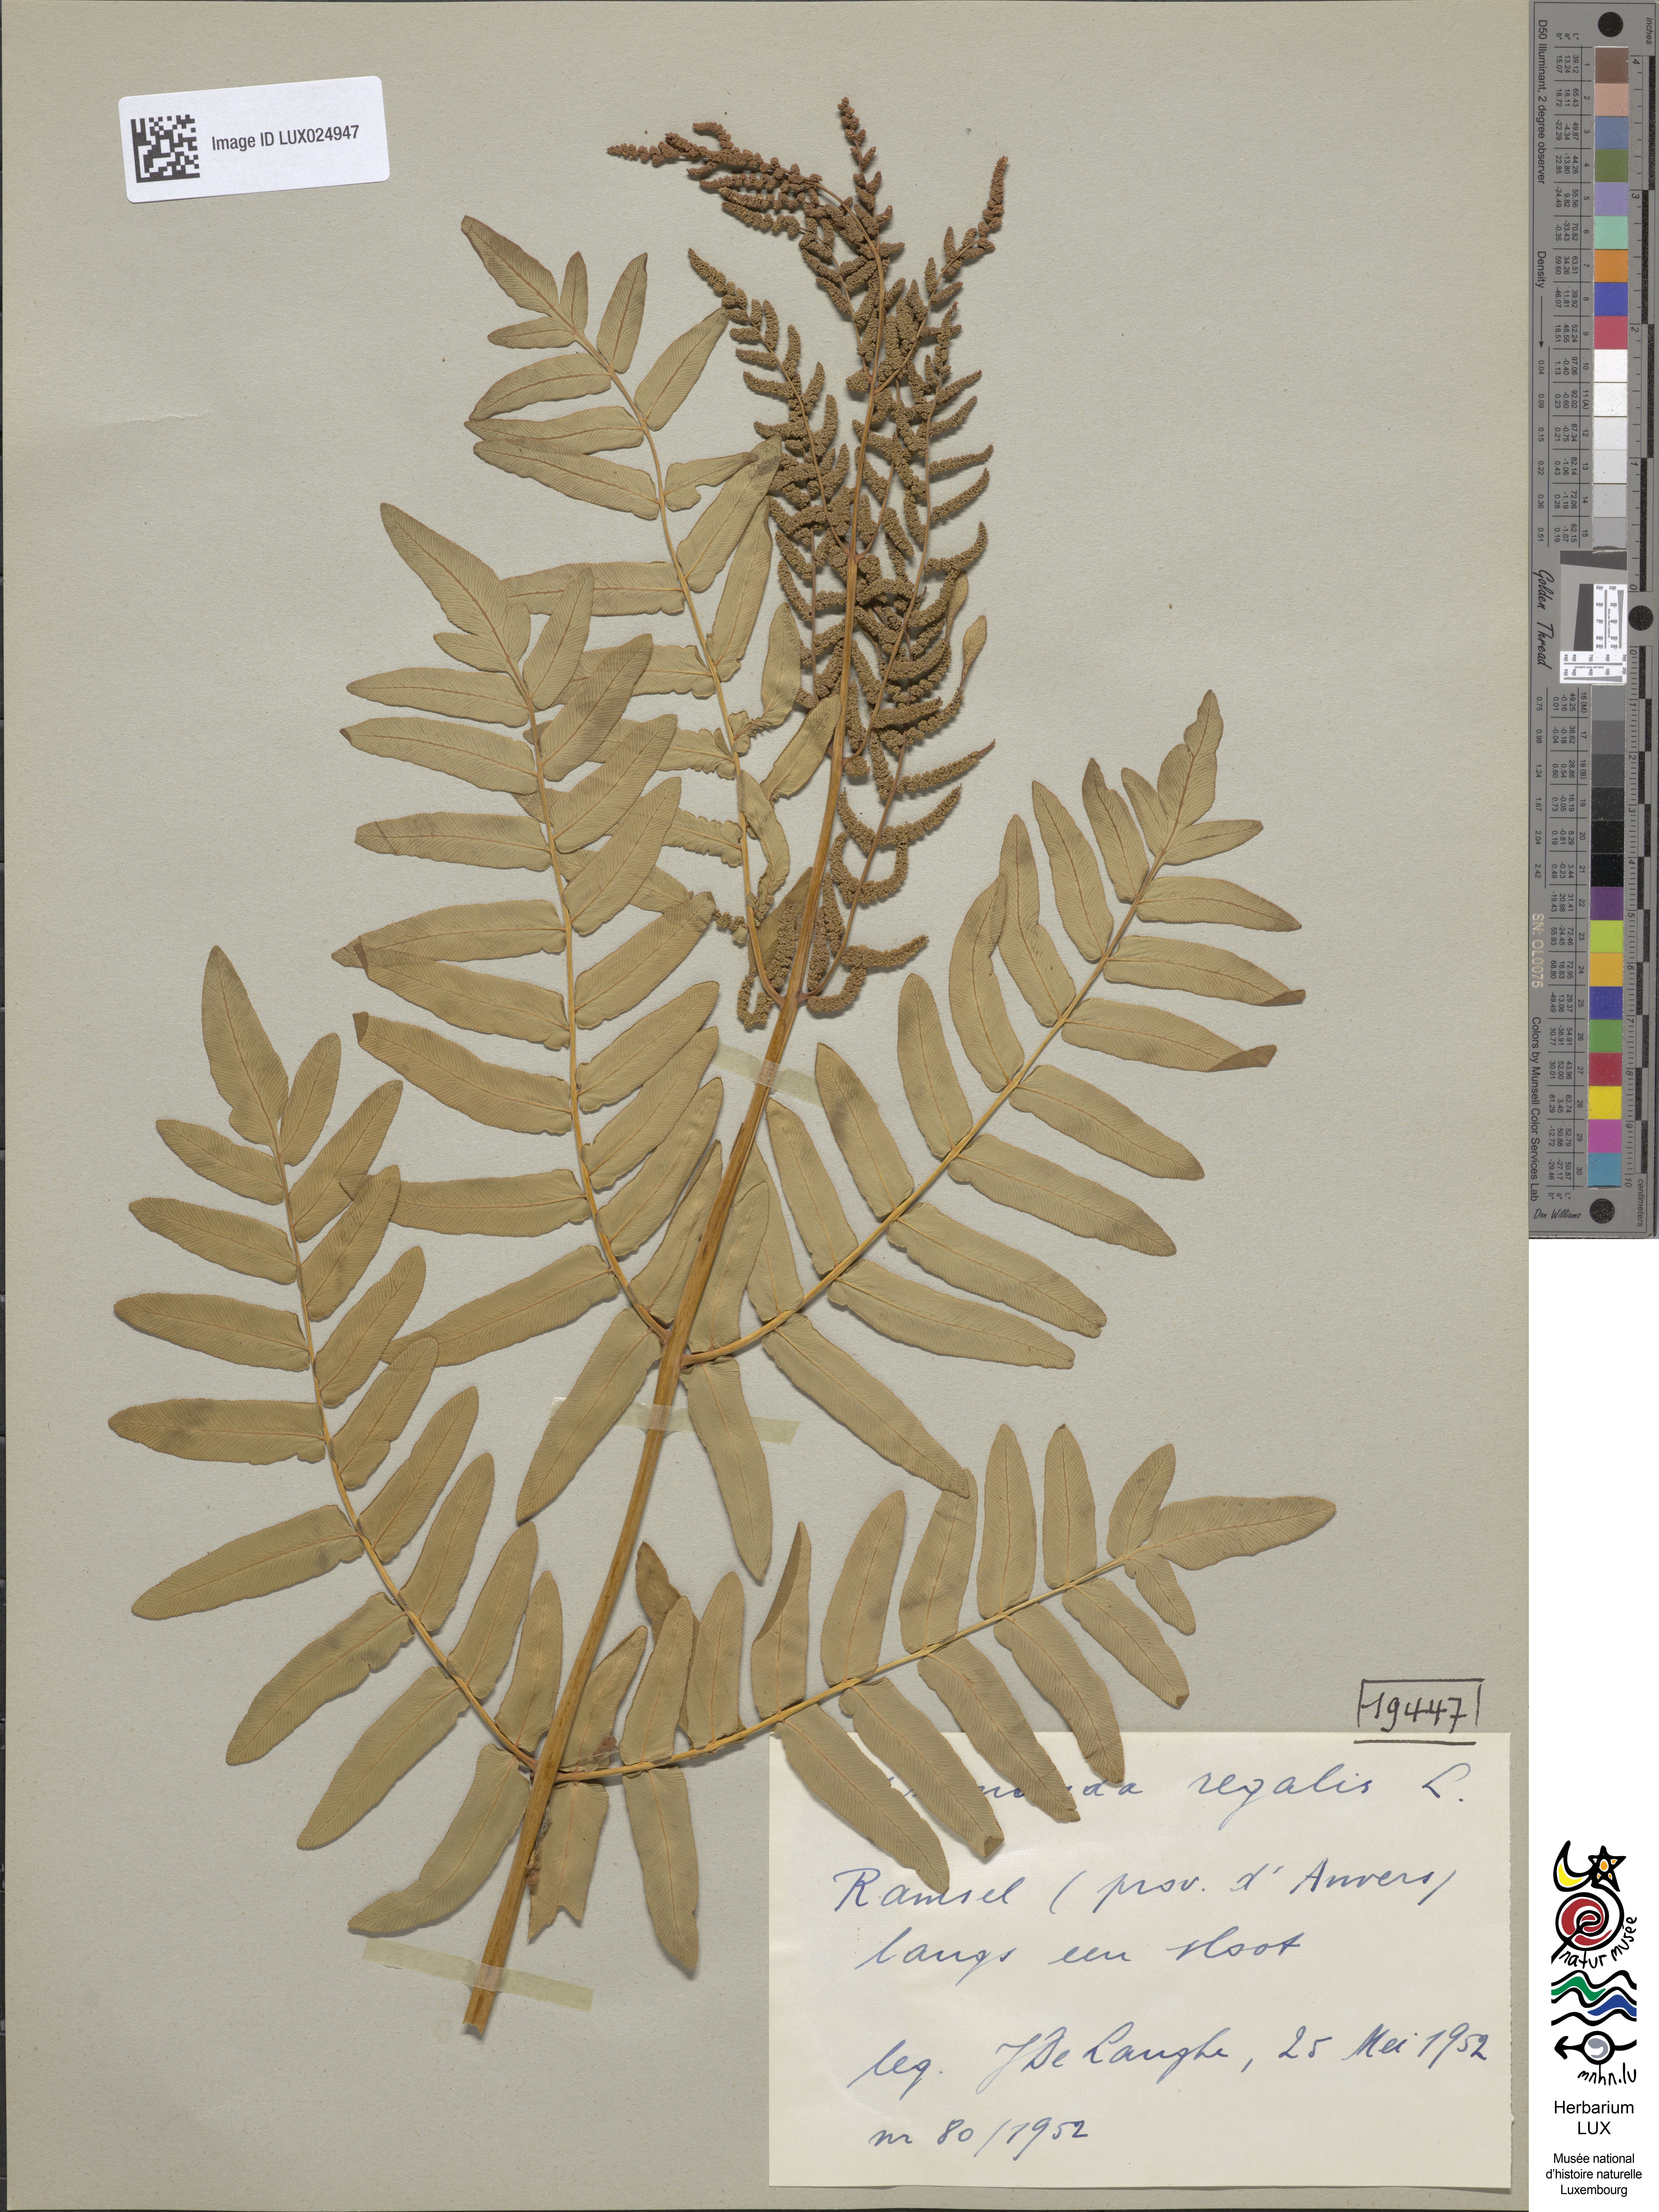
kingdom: Plantae
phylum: Tracheophyta
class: Polypodiopsida
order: Osmundales
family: Osmundaceae
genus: Osmunda
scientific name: Osmunda regalis
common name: Royal fern
